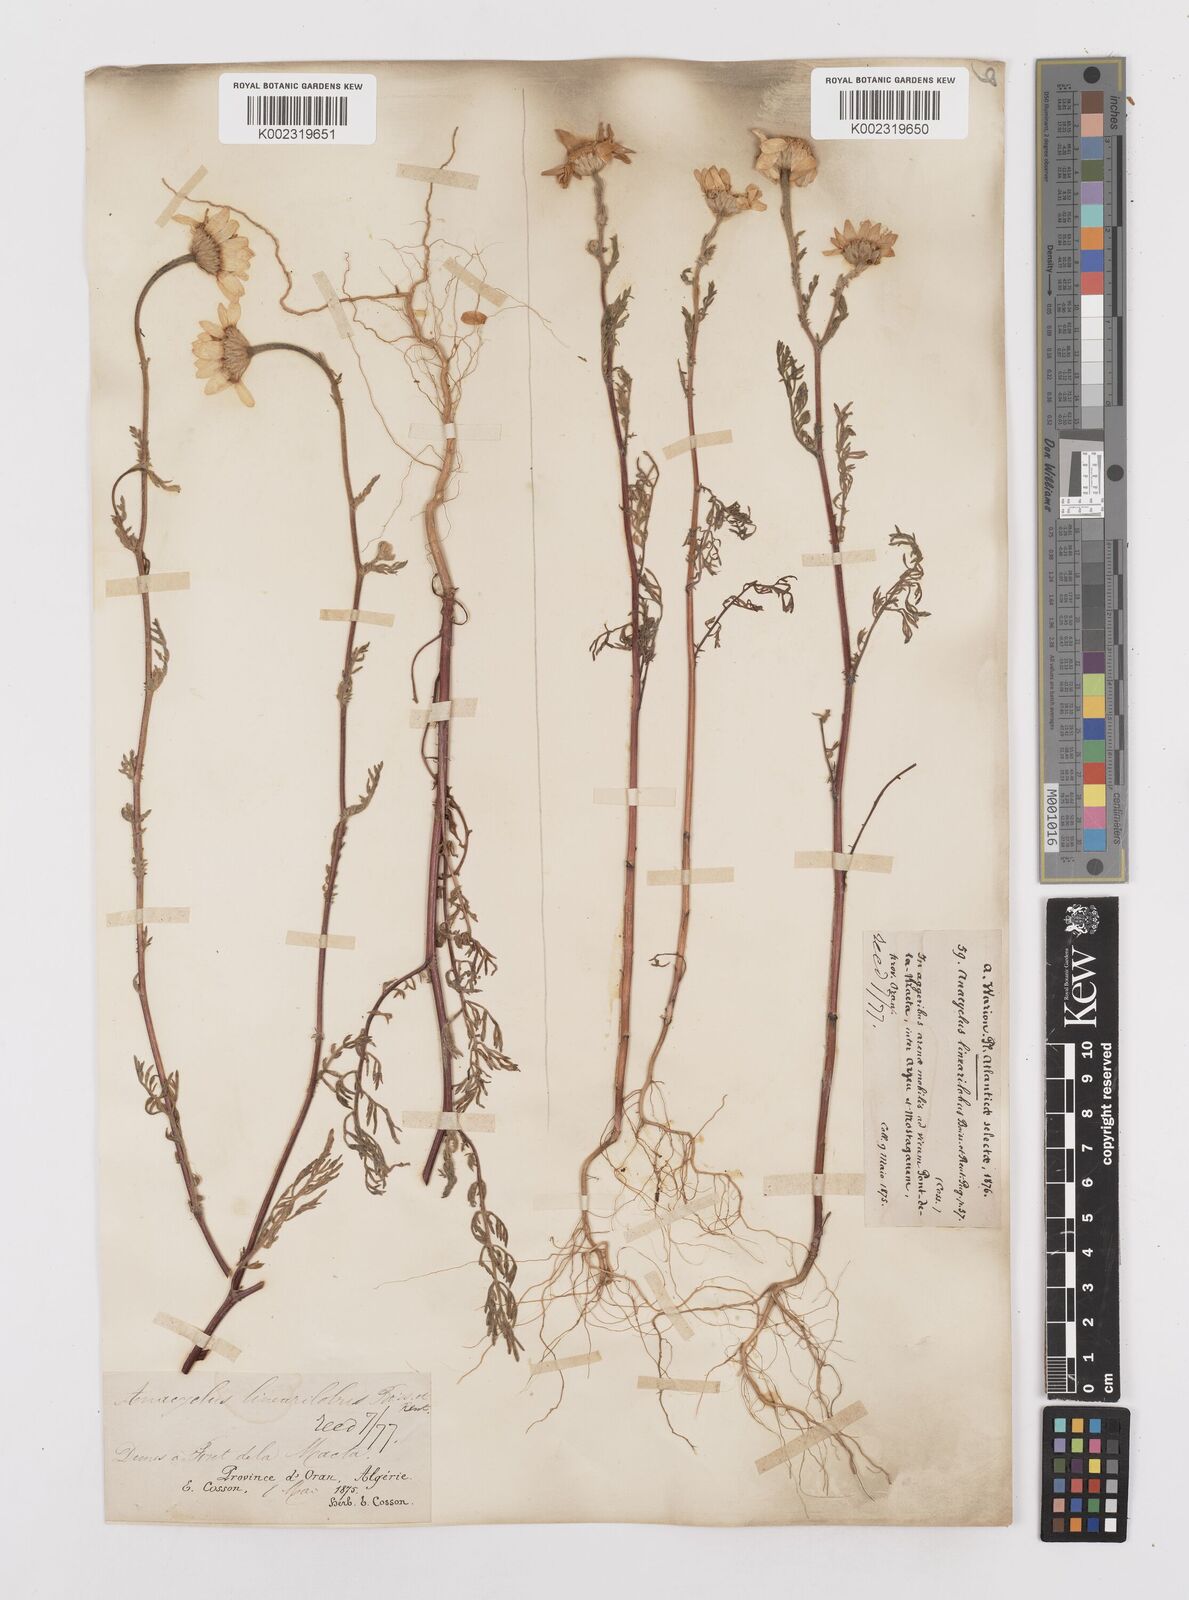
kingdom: Plantae
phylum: Tracheophyta
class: Magnoliopsida
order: Asterales
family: Asteraceae
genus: Anacyclus
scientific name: Anacyclus linearilobus
